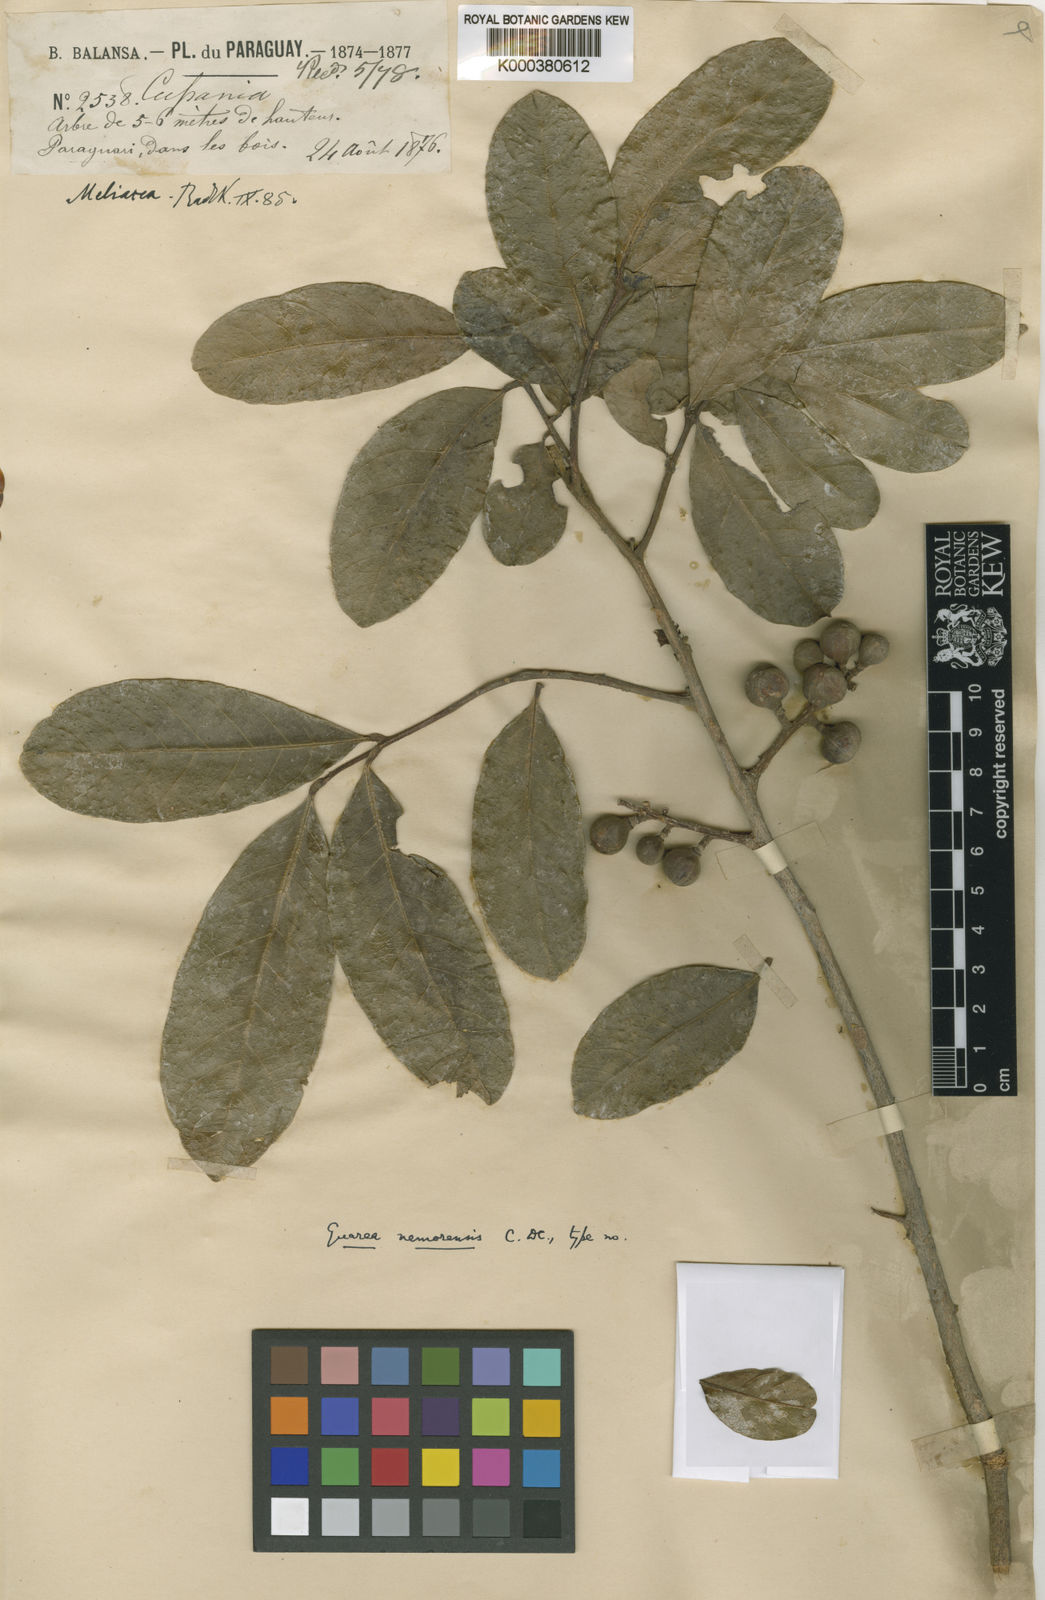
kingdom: Plantae
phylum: Tracheophyta
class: Magnoliopsida
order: Sapindales
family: Meliaceae
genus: Guarea
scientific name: Guarea macrophylla
